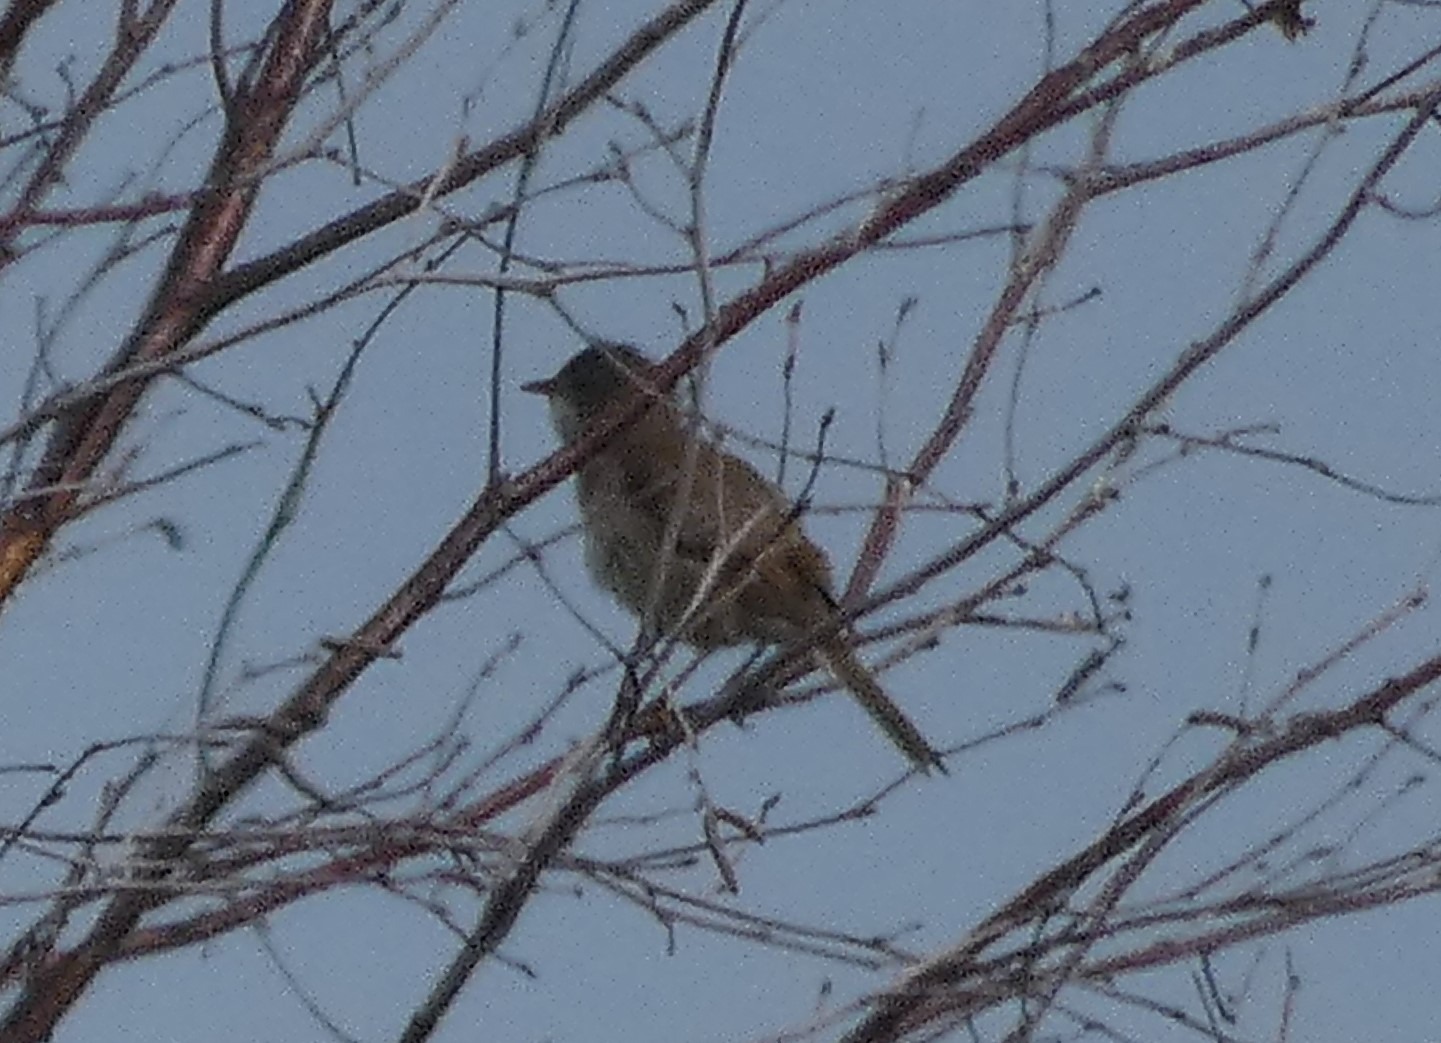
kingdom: Animalia
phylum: Chordata
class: Aves
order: Passeriformes
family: Sylviidae
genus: Sylvia
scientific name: Sylvia communis
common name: Tornsanger
